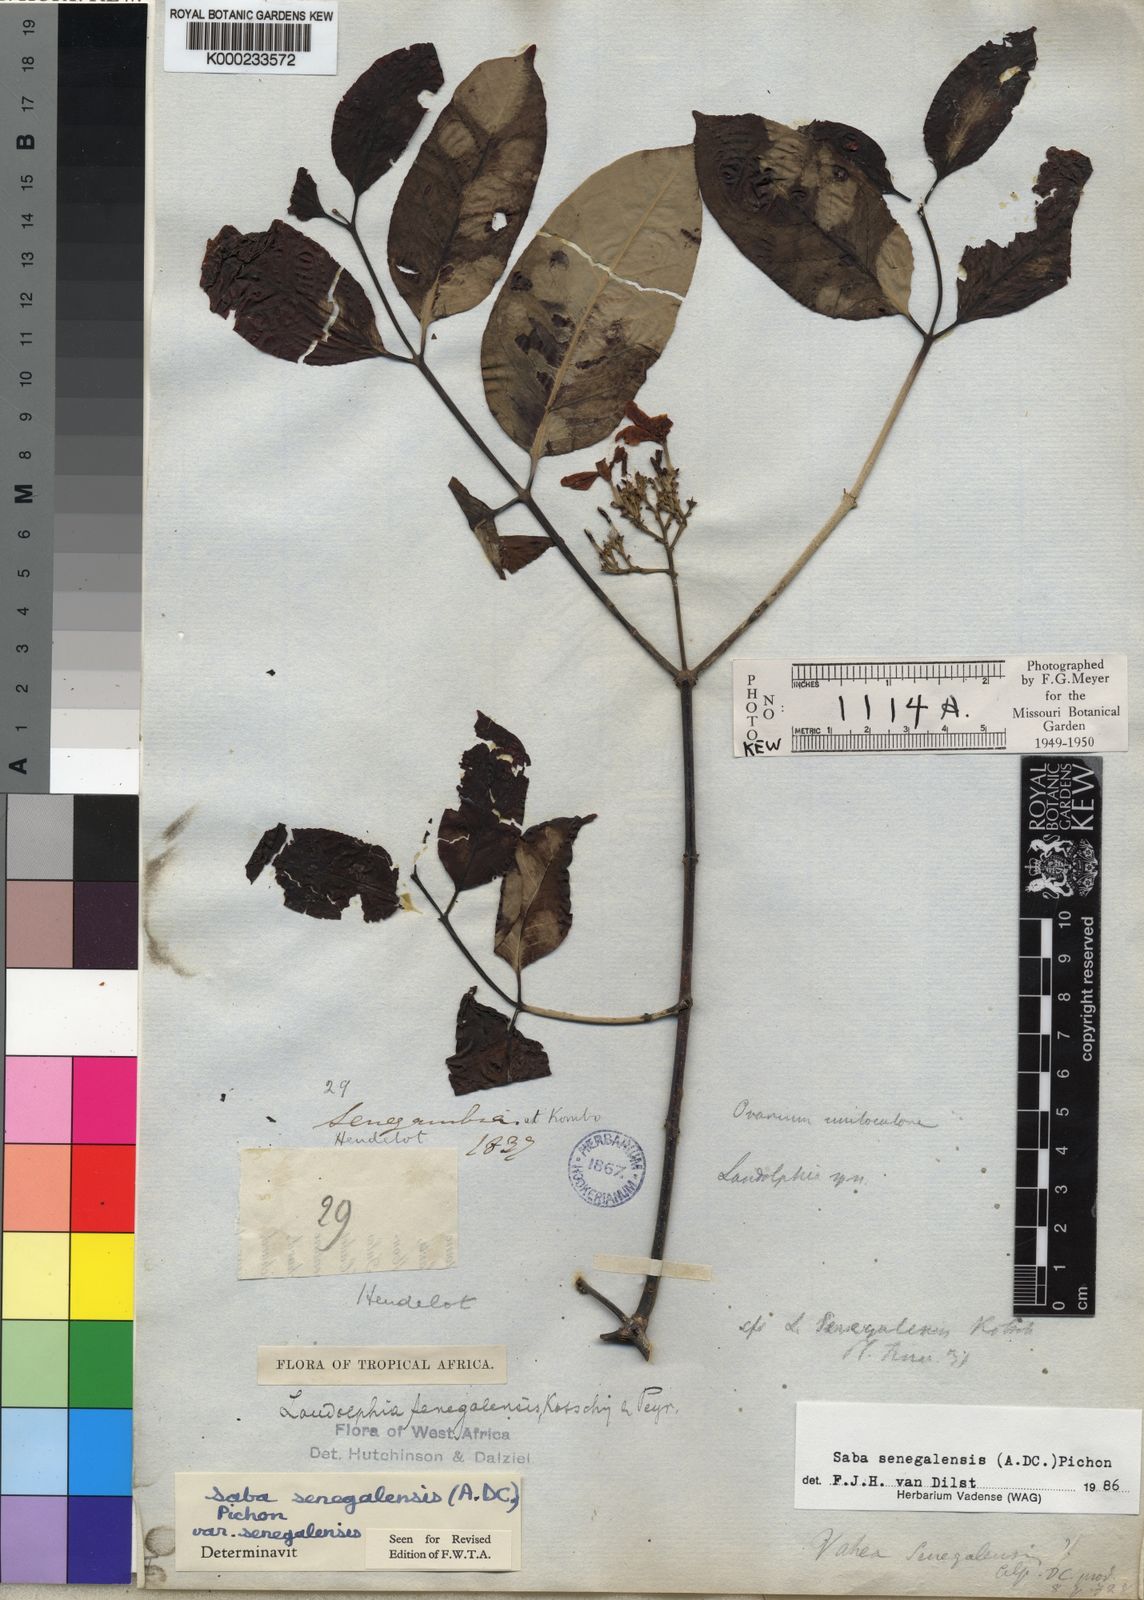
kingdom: Plantae
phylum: Tracheophyta
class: Magnoliopsida
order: Gentianales
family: Apocynaceae
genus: Saba
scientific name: Saba senegalensis
